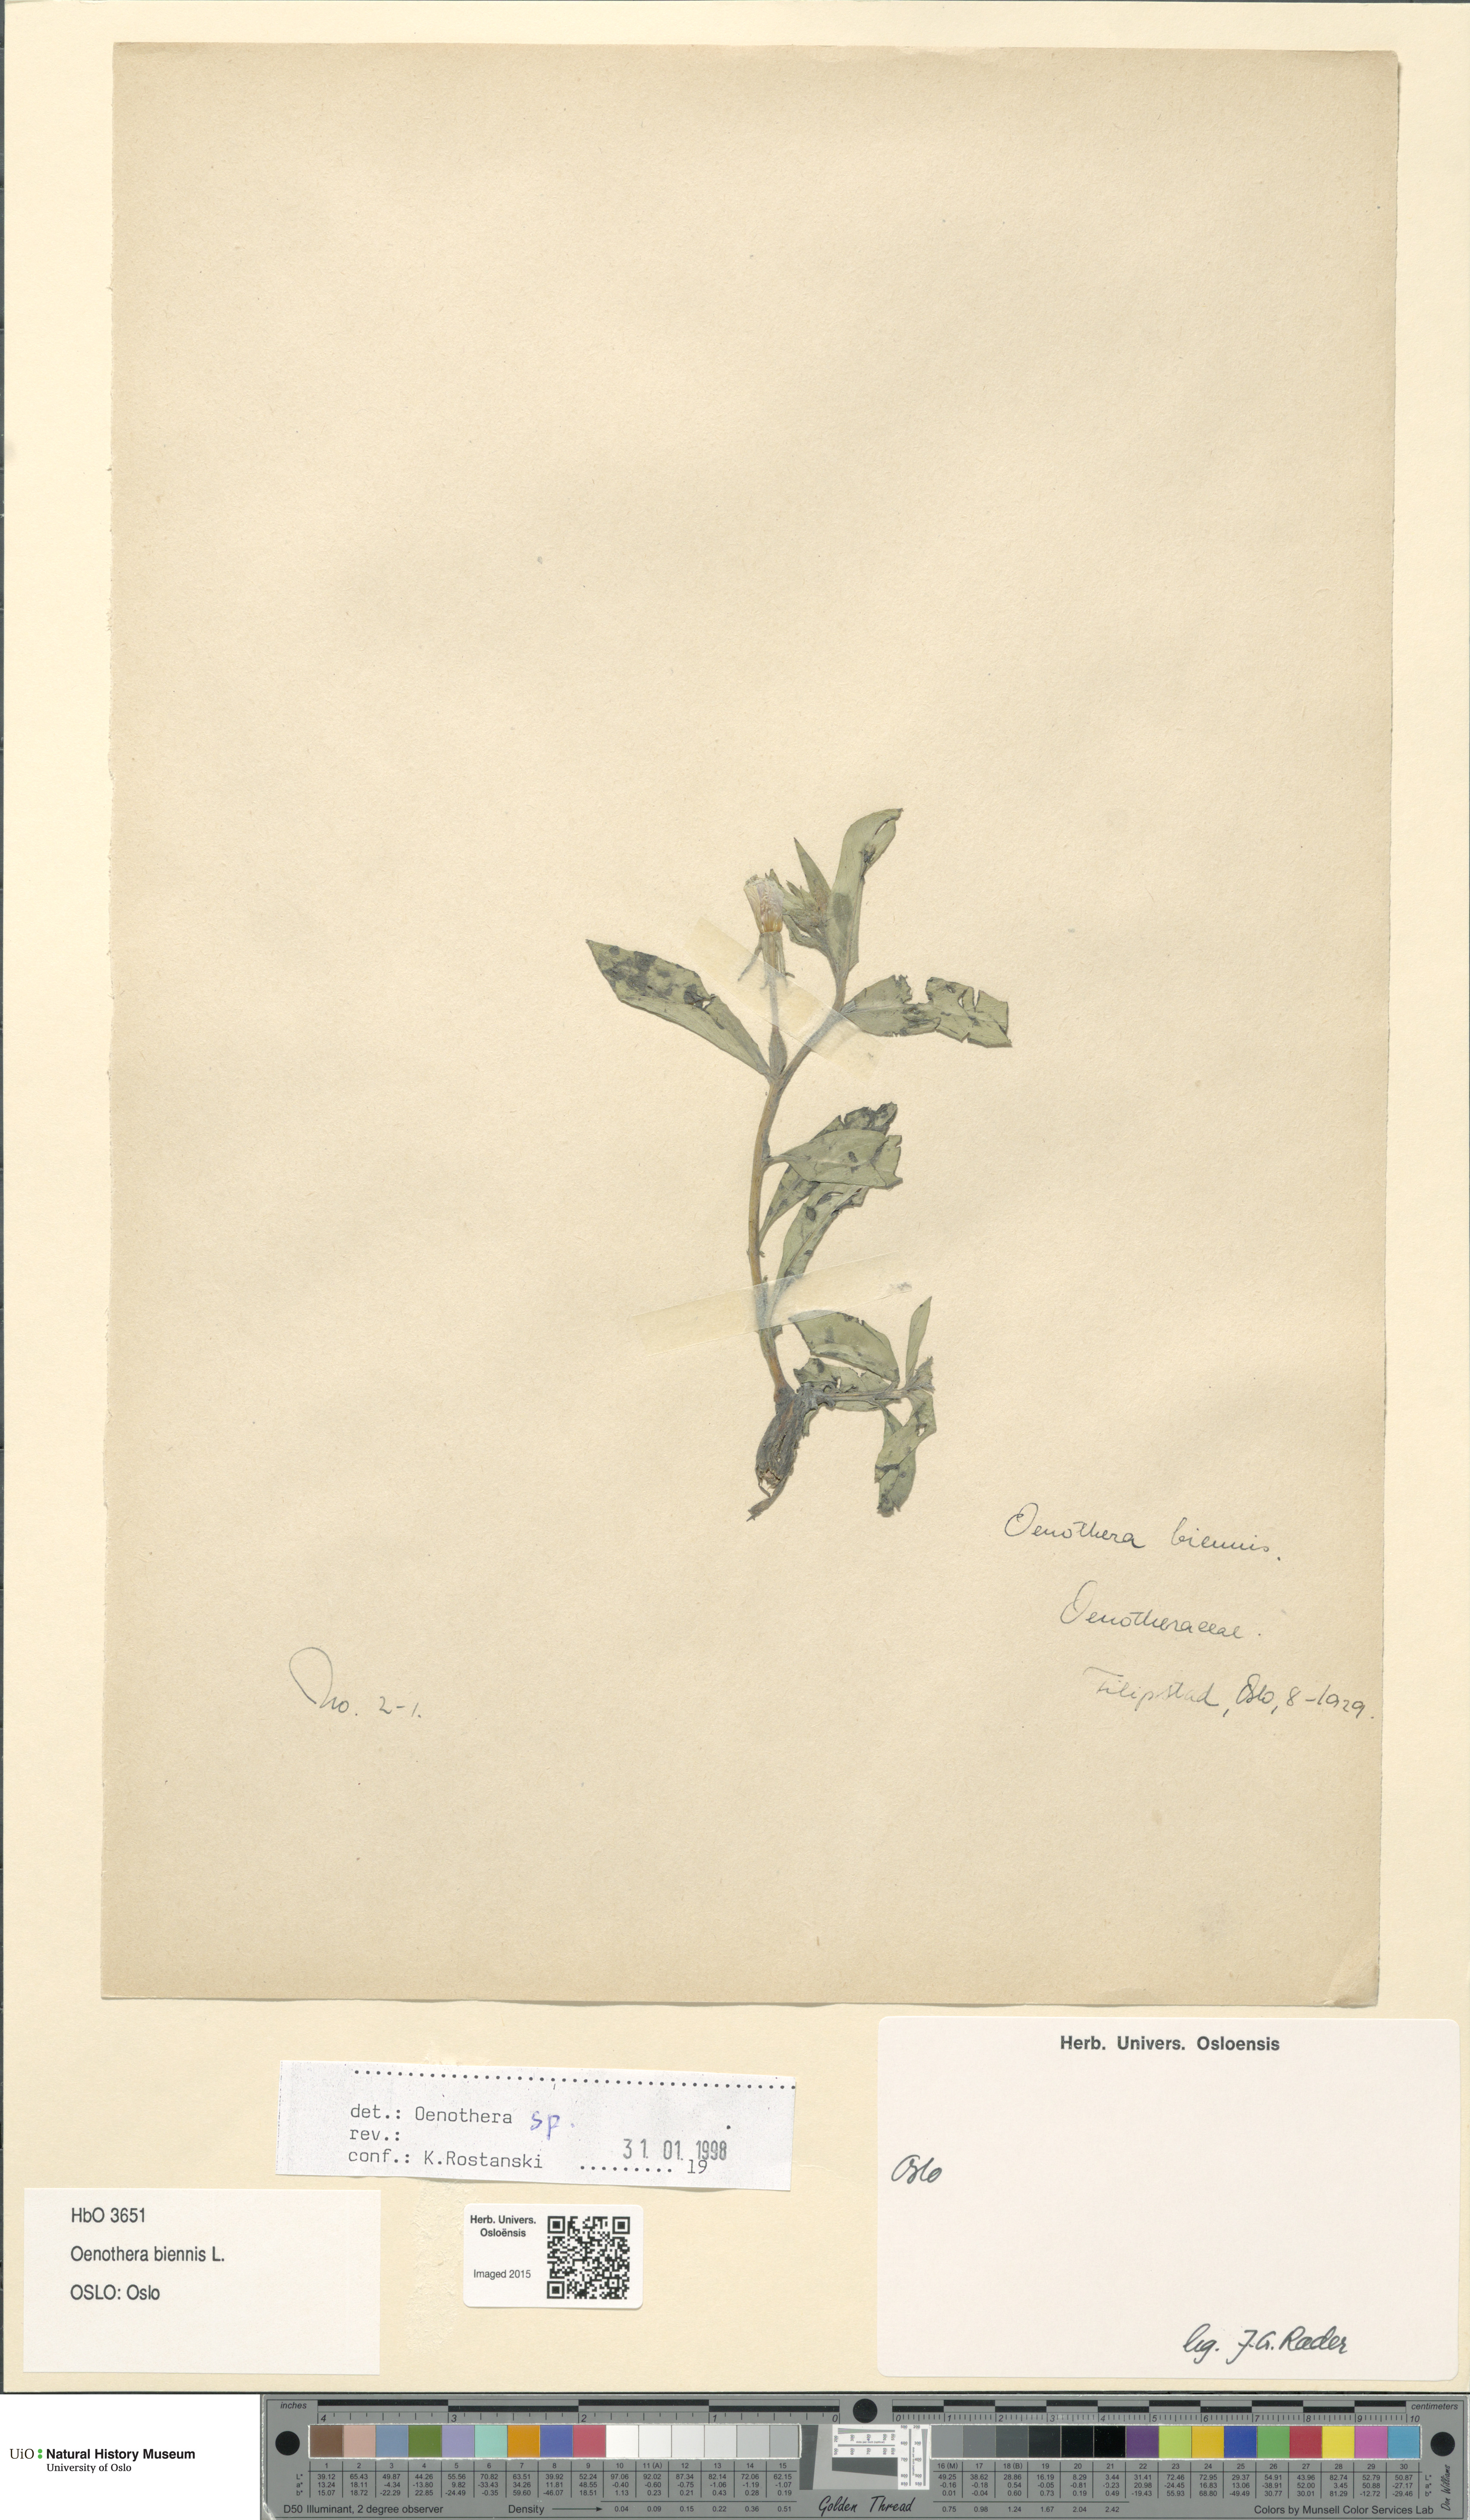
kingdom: Plantae
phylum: Tracheophyta
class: Magnoliopsida
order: Myrtales
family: Onagraceae
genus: Oenothera
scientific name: Oenothera biennis
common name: Common evening-primrose
